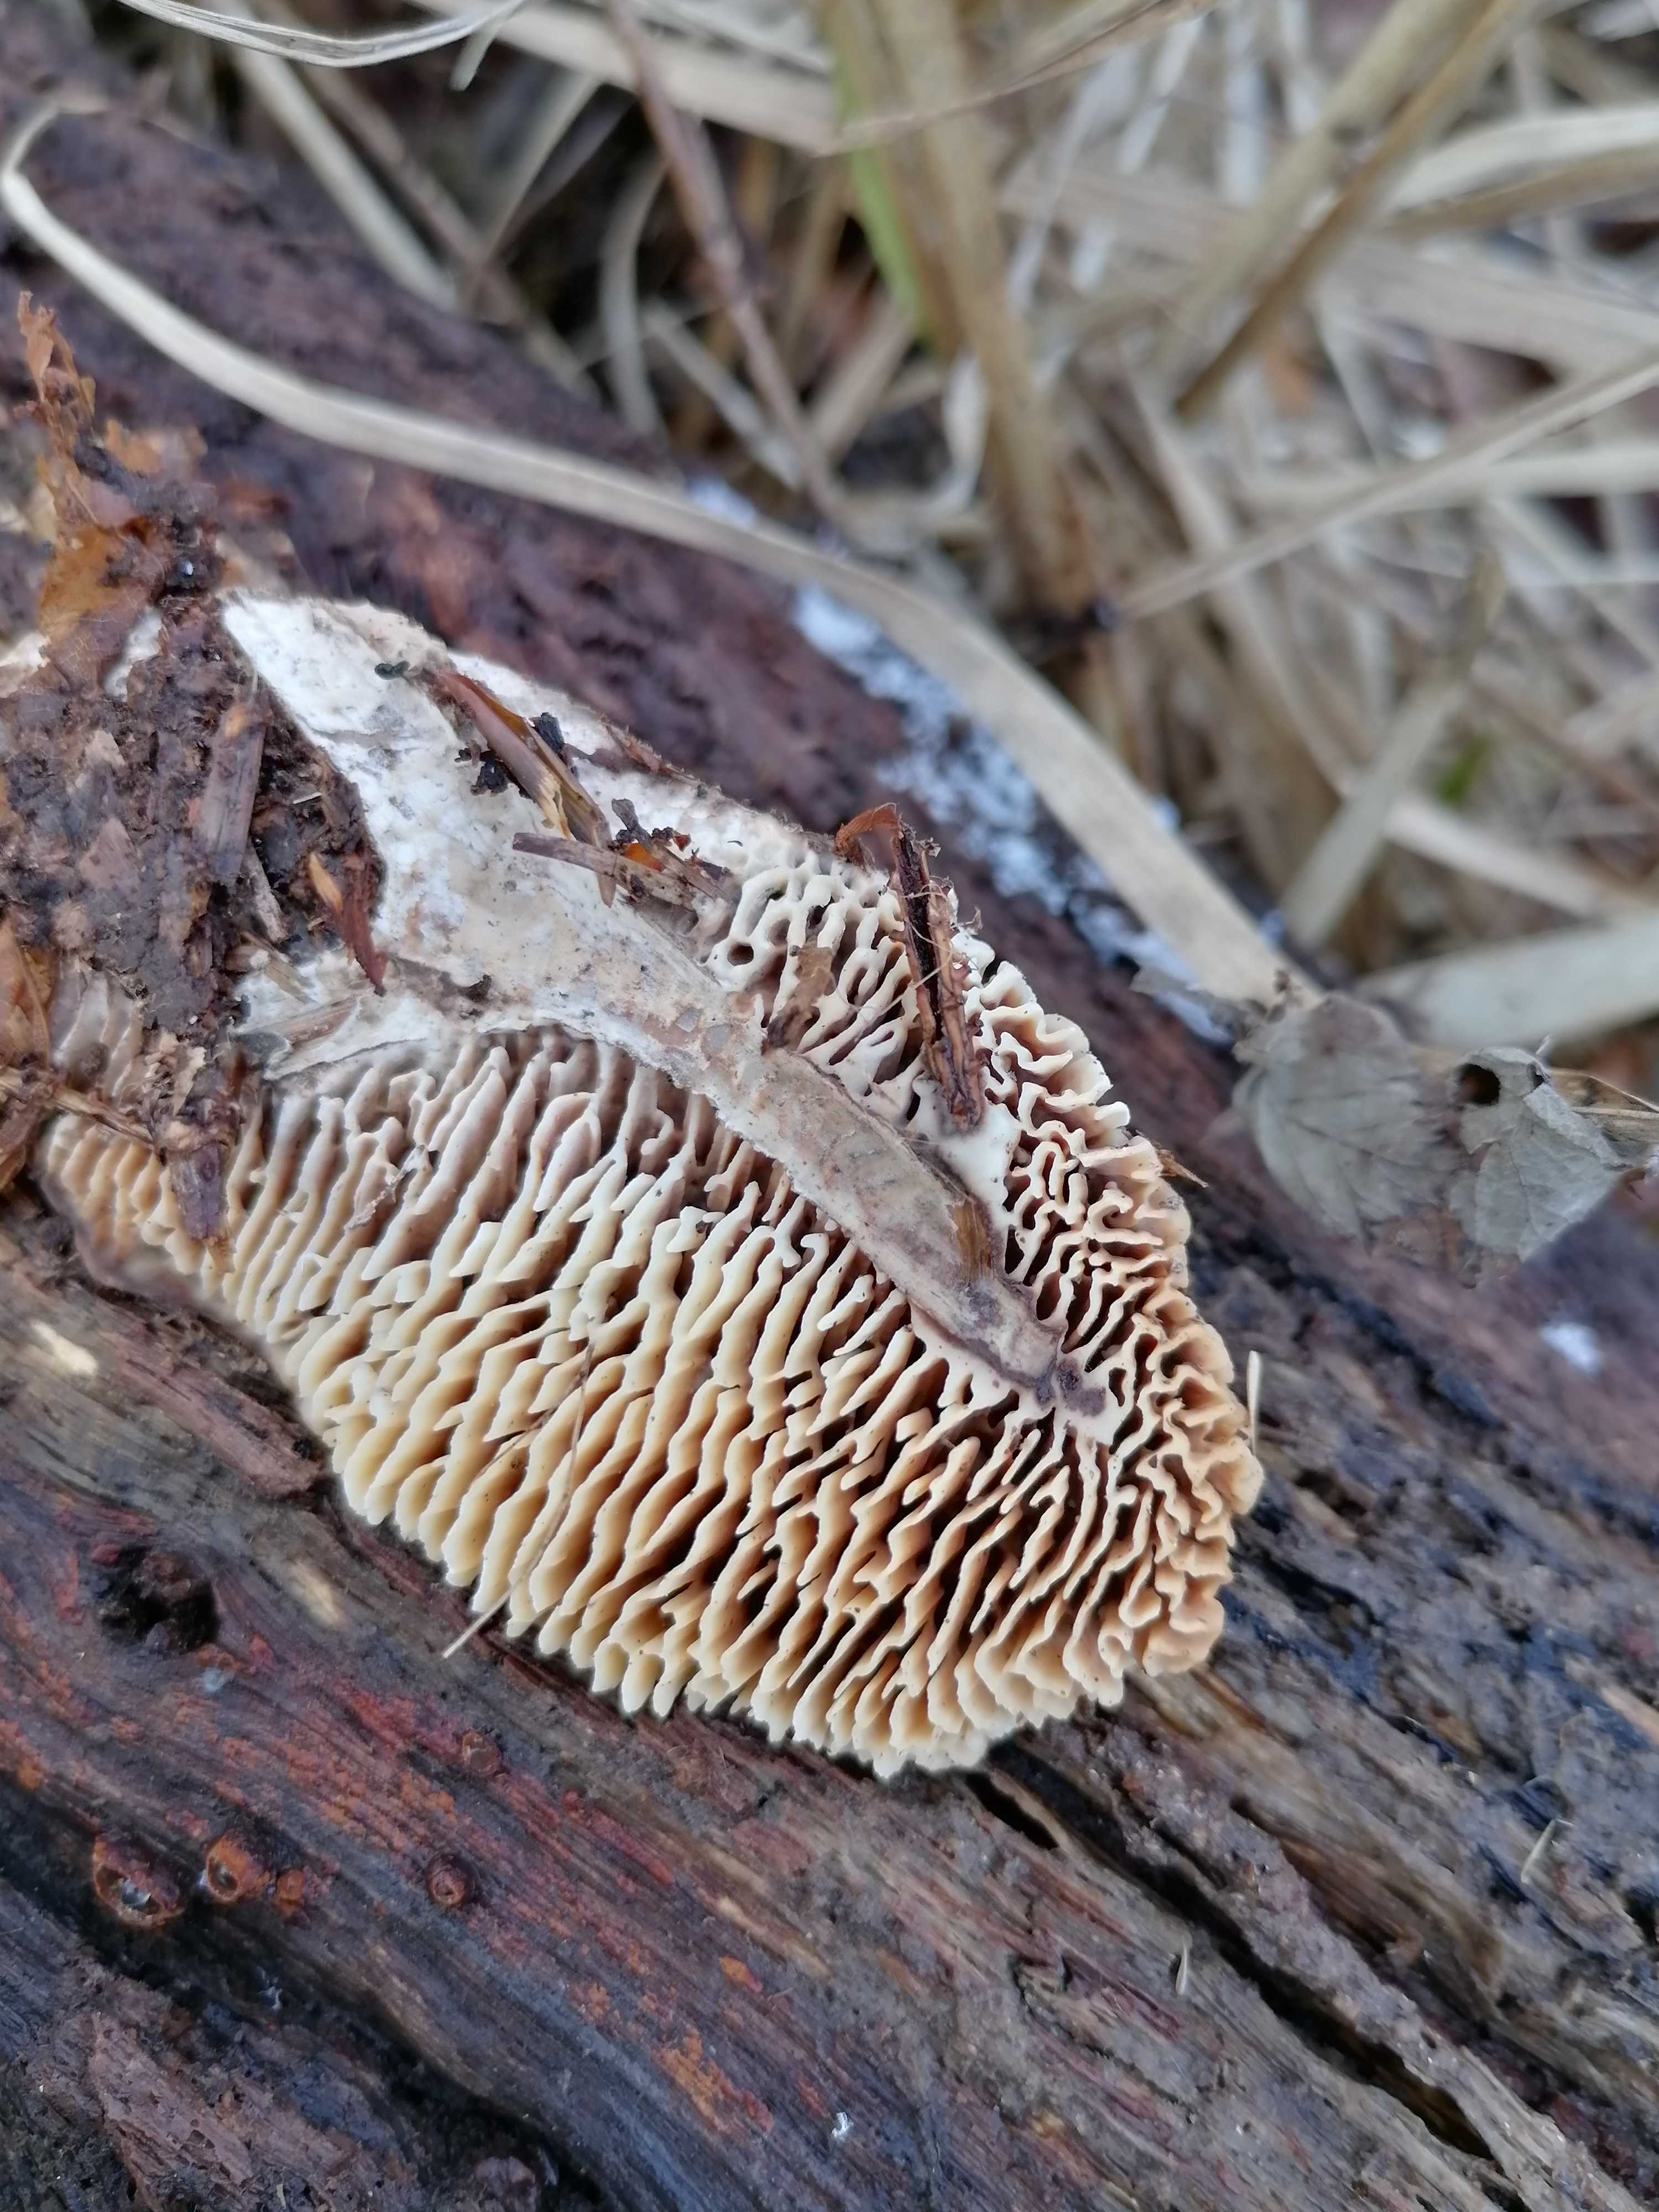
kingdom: Fungi
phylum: Basidiomycota
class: Agaricomycetes
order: Gloeophyllales
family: Gloeophyllaceae
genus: Gloeophyllum
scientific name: Gloeophyllum
